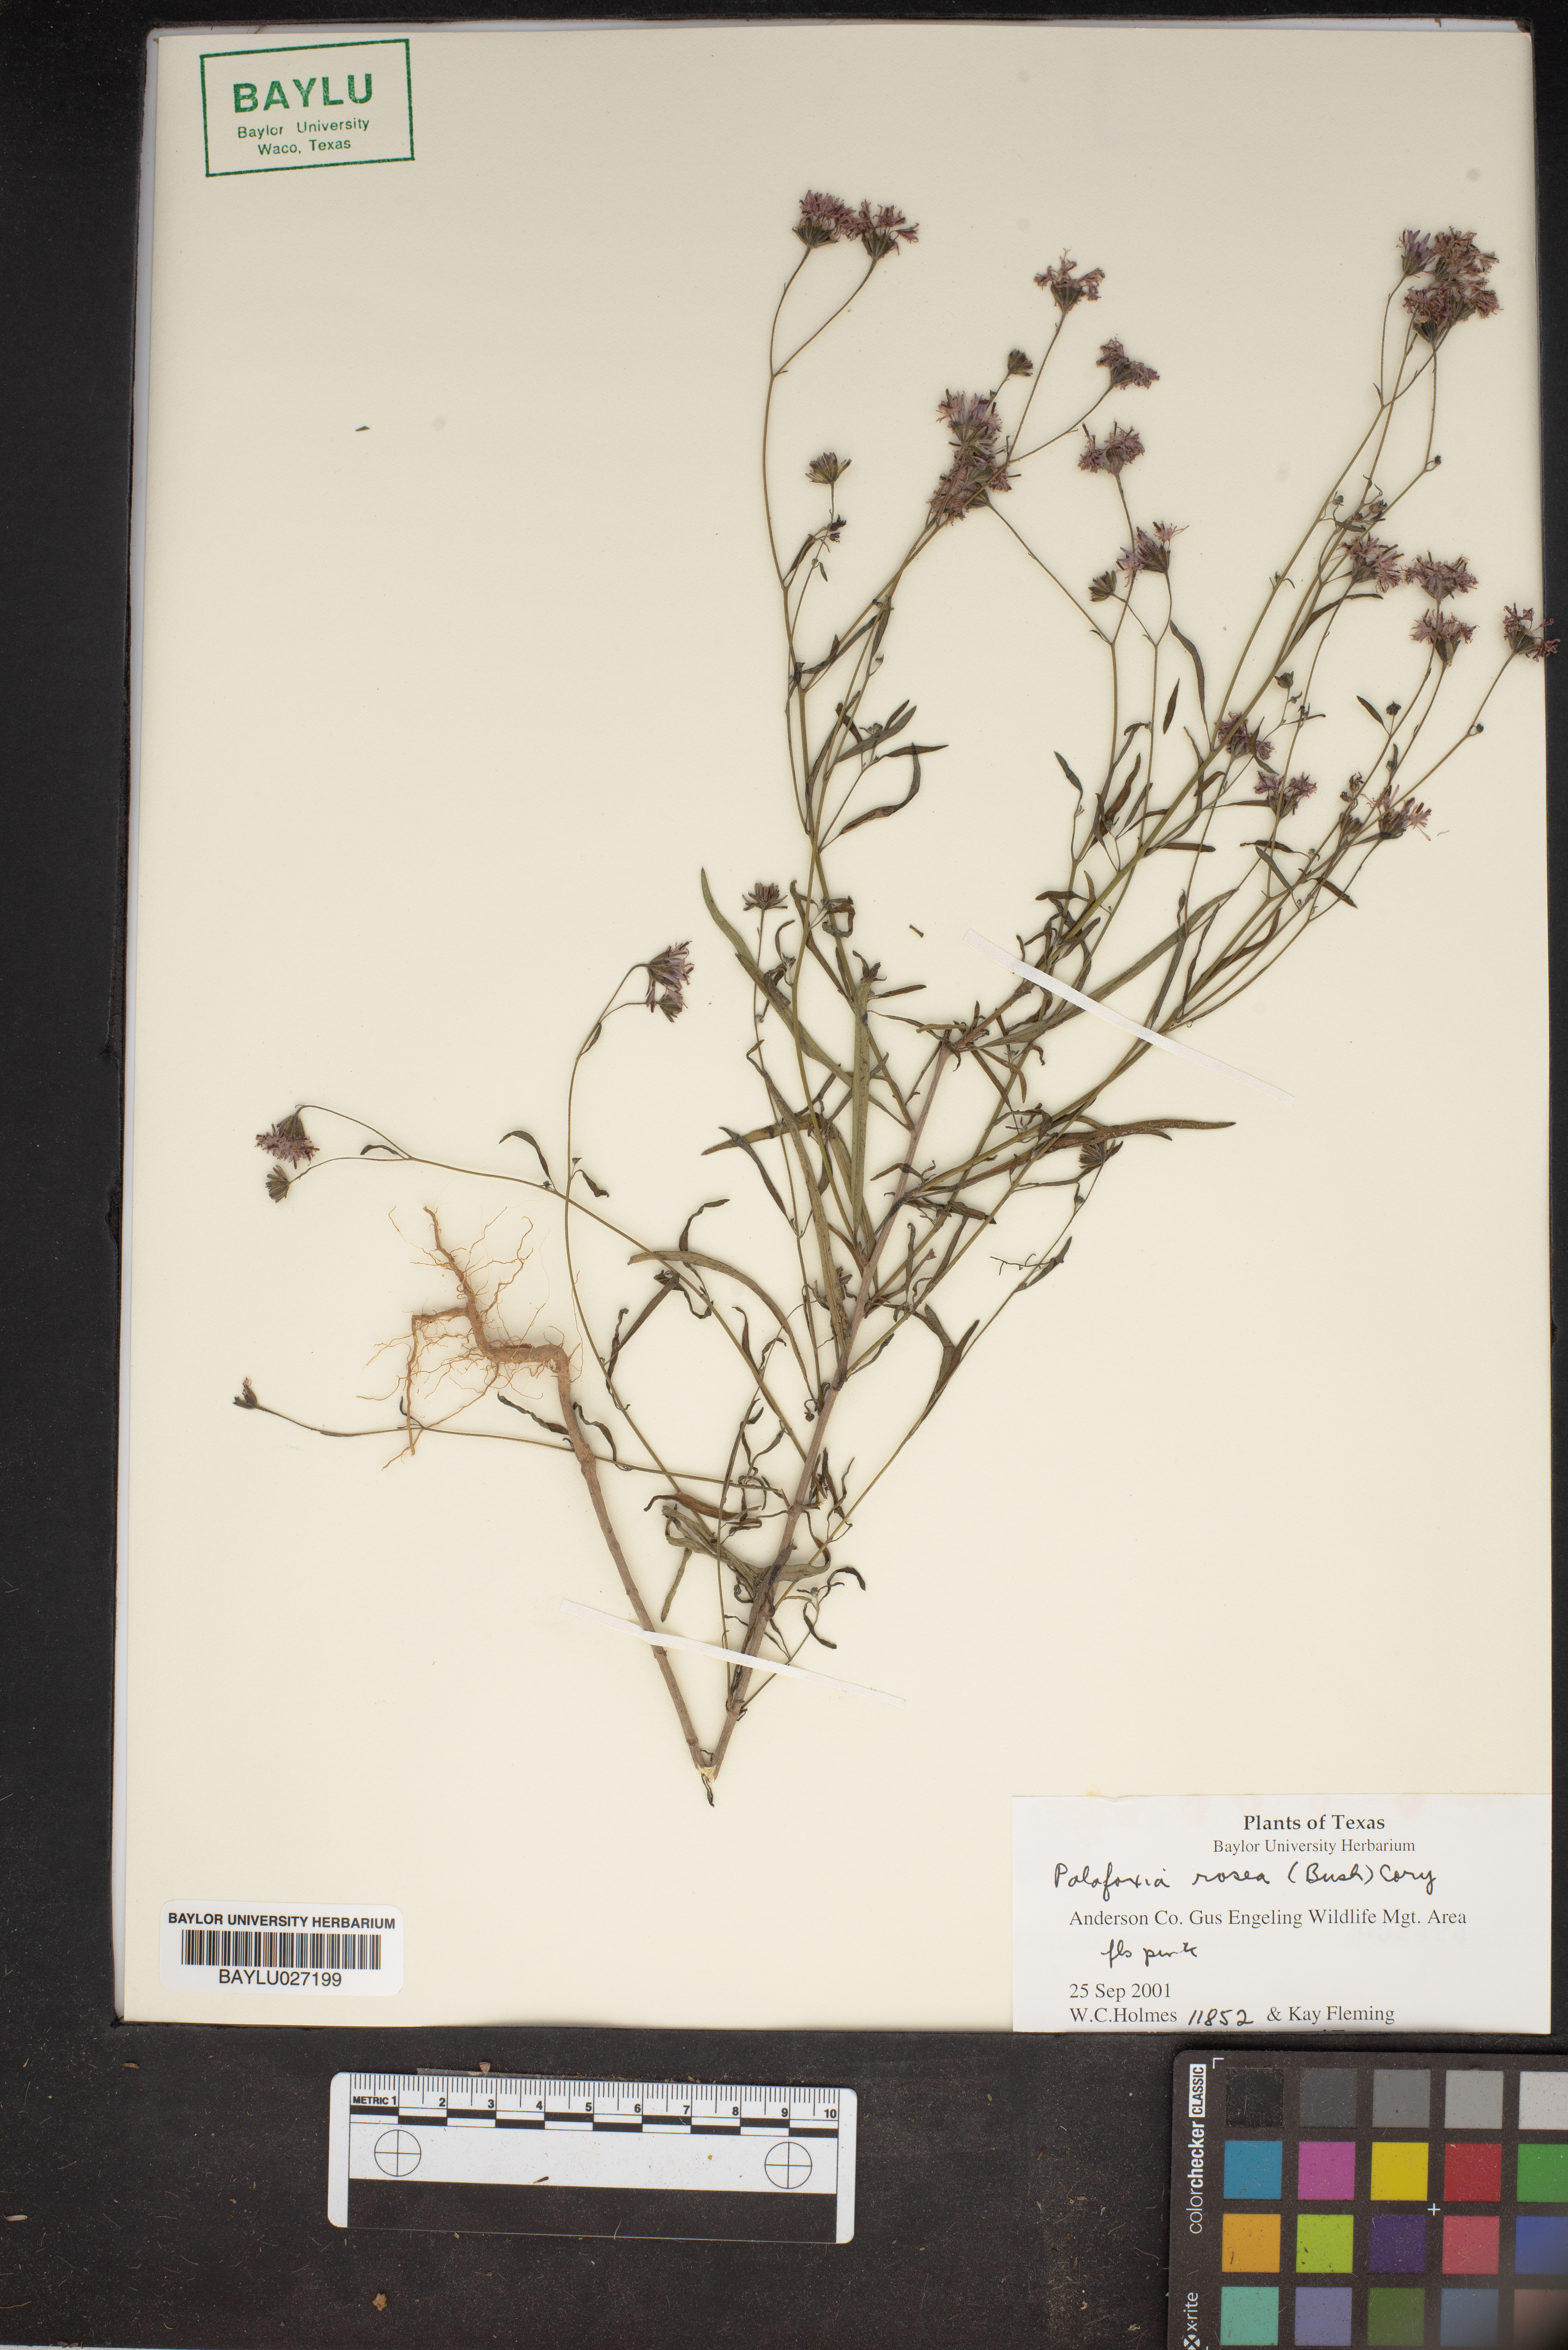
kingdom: Plantae
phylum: Tracheophyta
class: Magnoliopsida
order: Asterales
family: Asteraceae
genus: Palafoxia
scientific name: Palafoxia rosea
